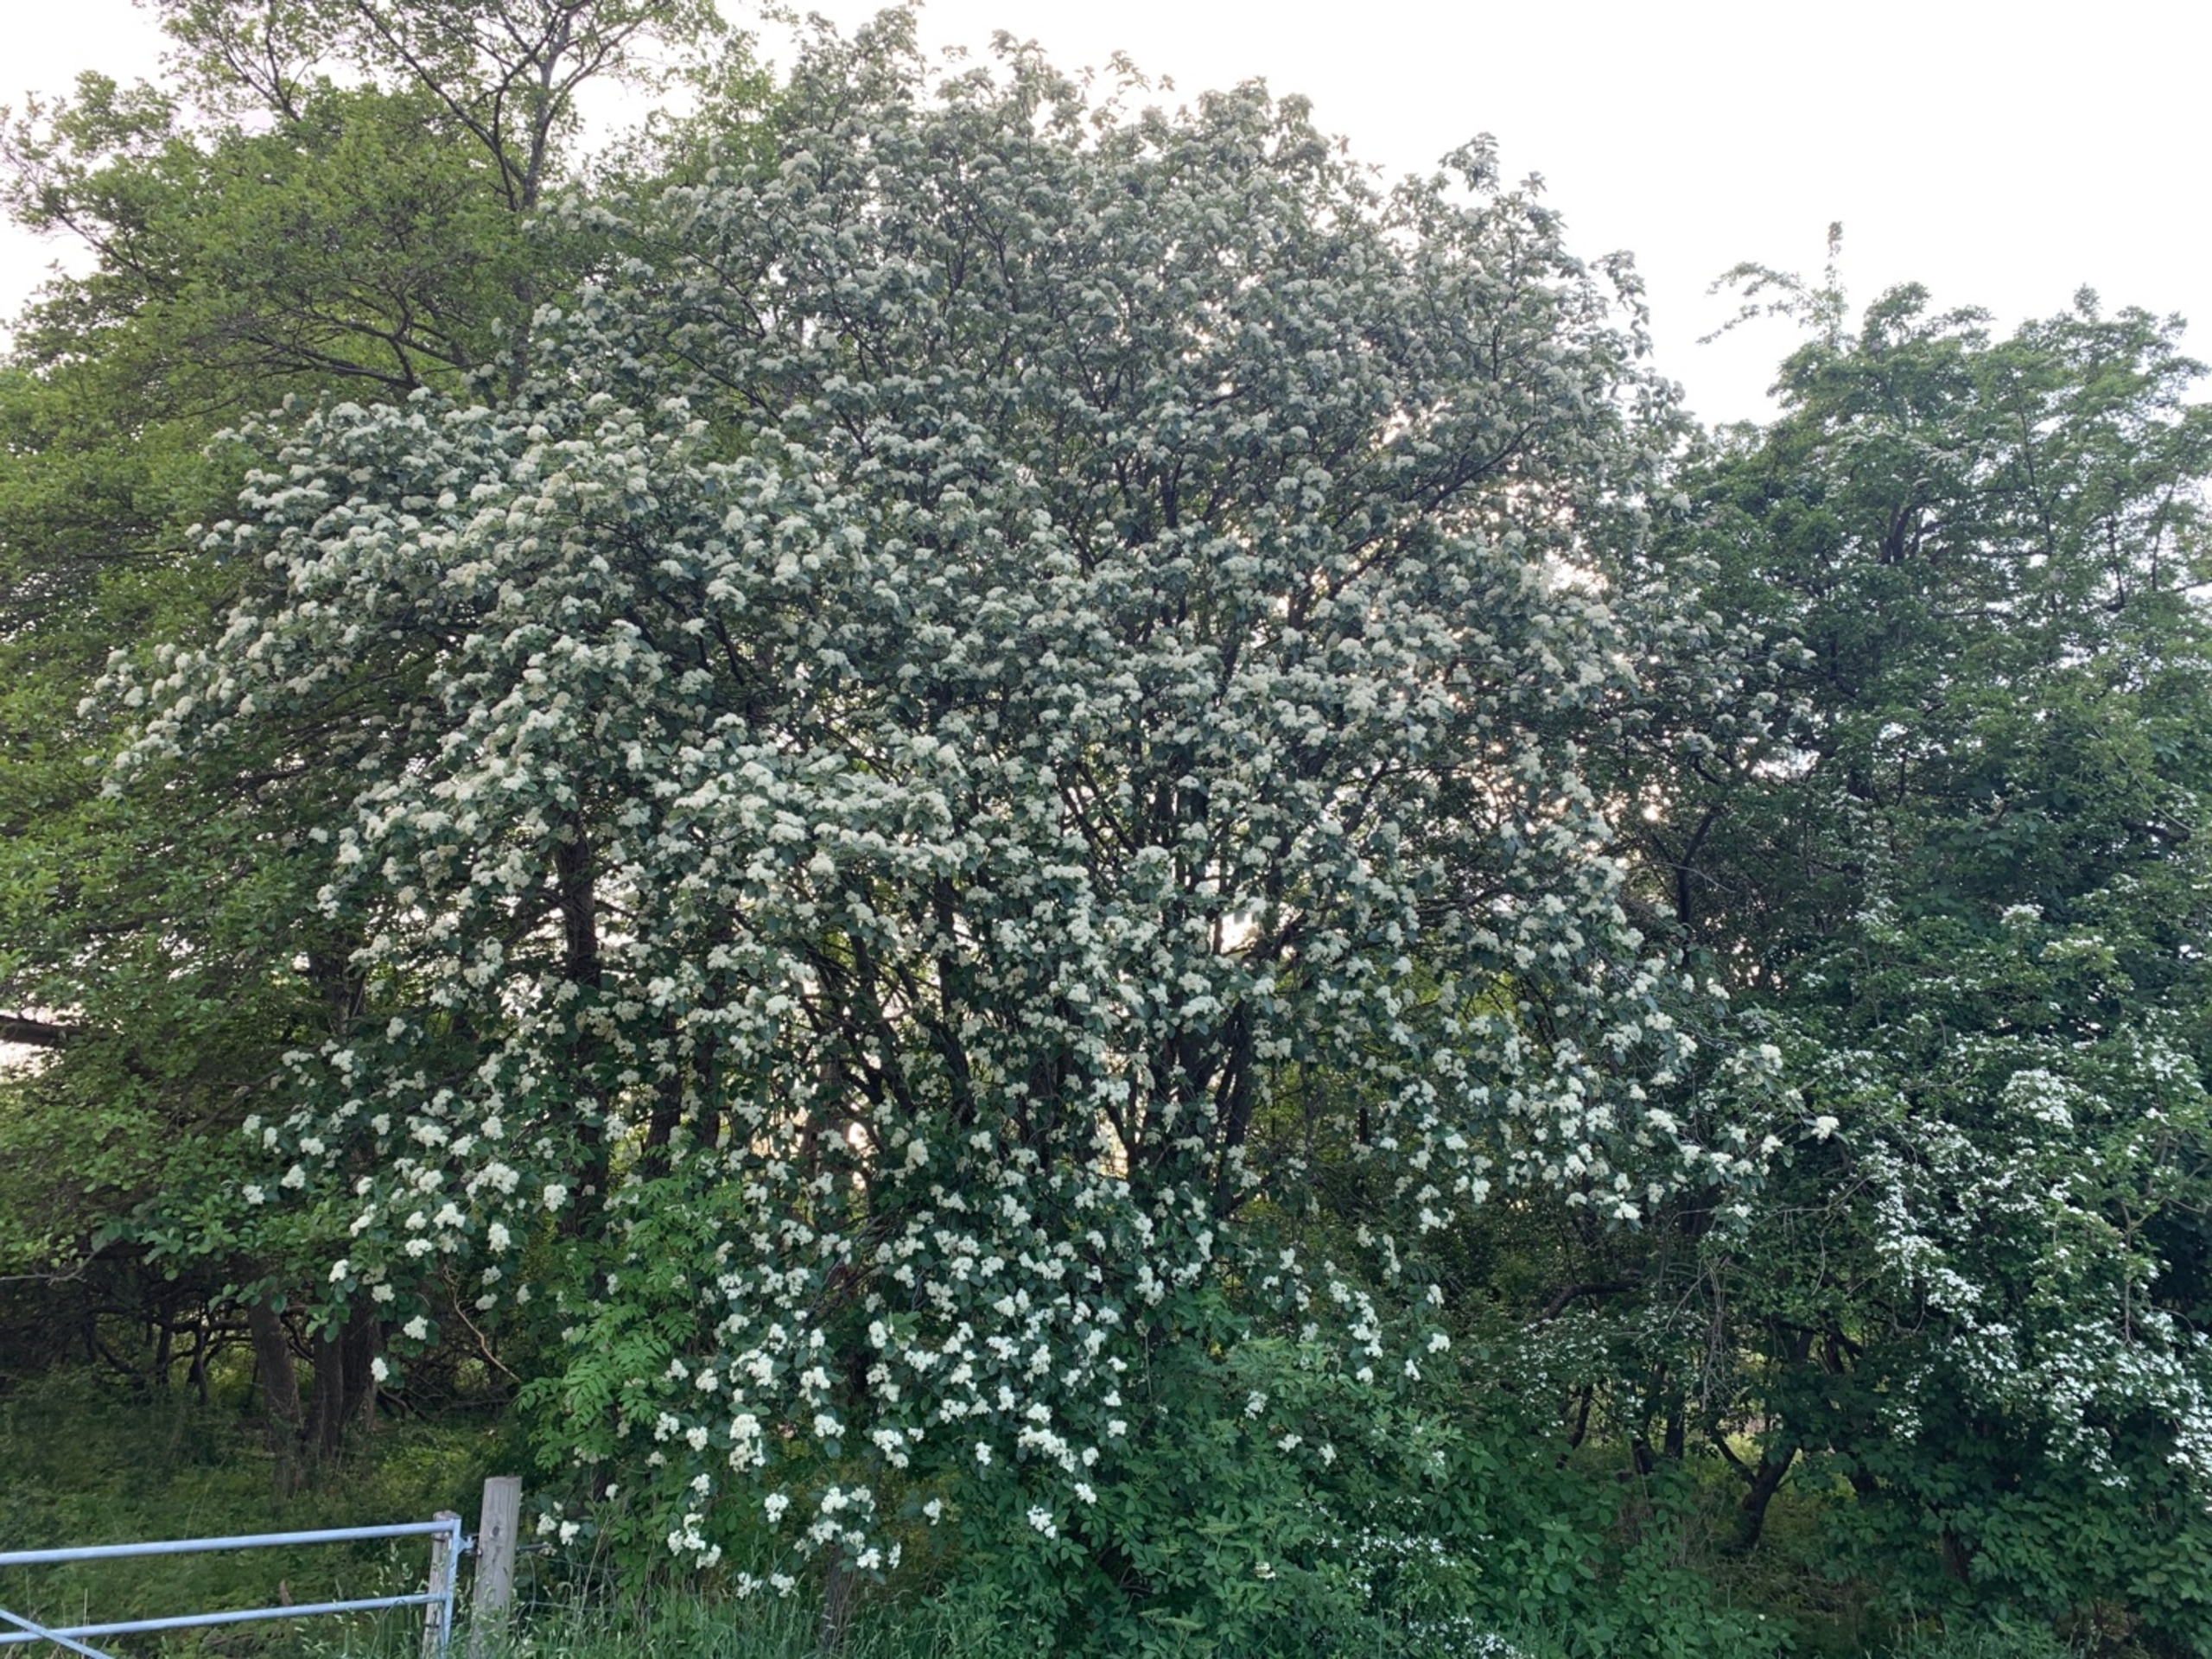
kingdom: Plantae
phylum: Tracheophyta
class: Magnoliopsida
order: Rosales
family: Rosaceae
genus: Scandosorbus
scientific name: Scandosorbus intermedia
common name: Selje-røn
